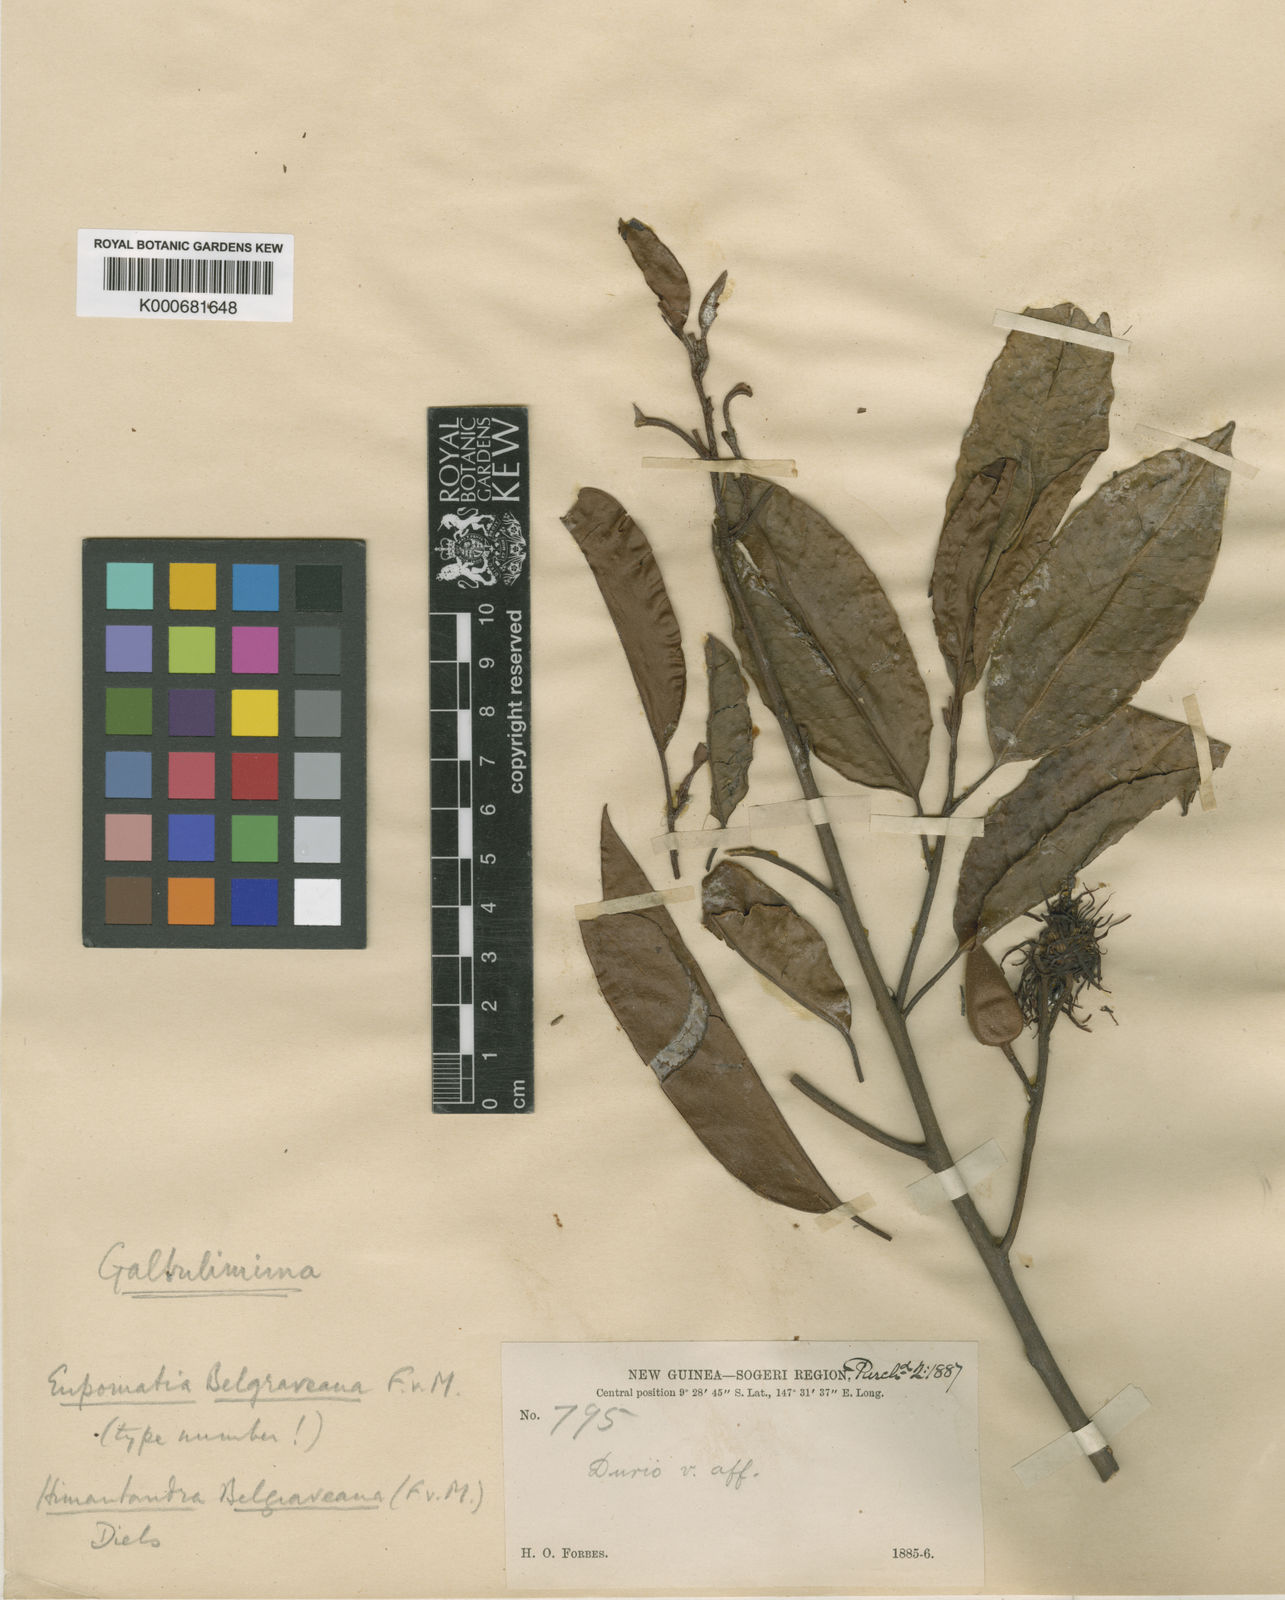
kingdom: Plantae
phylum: Tracheophyta
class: Magnoliopsida
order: Magnoliales
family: Himantandraceae
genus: Galbulimima
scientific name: Galbulimima belgraveana
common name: Northern pigeonberry-ash
